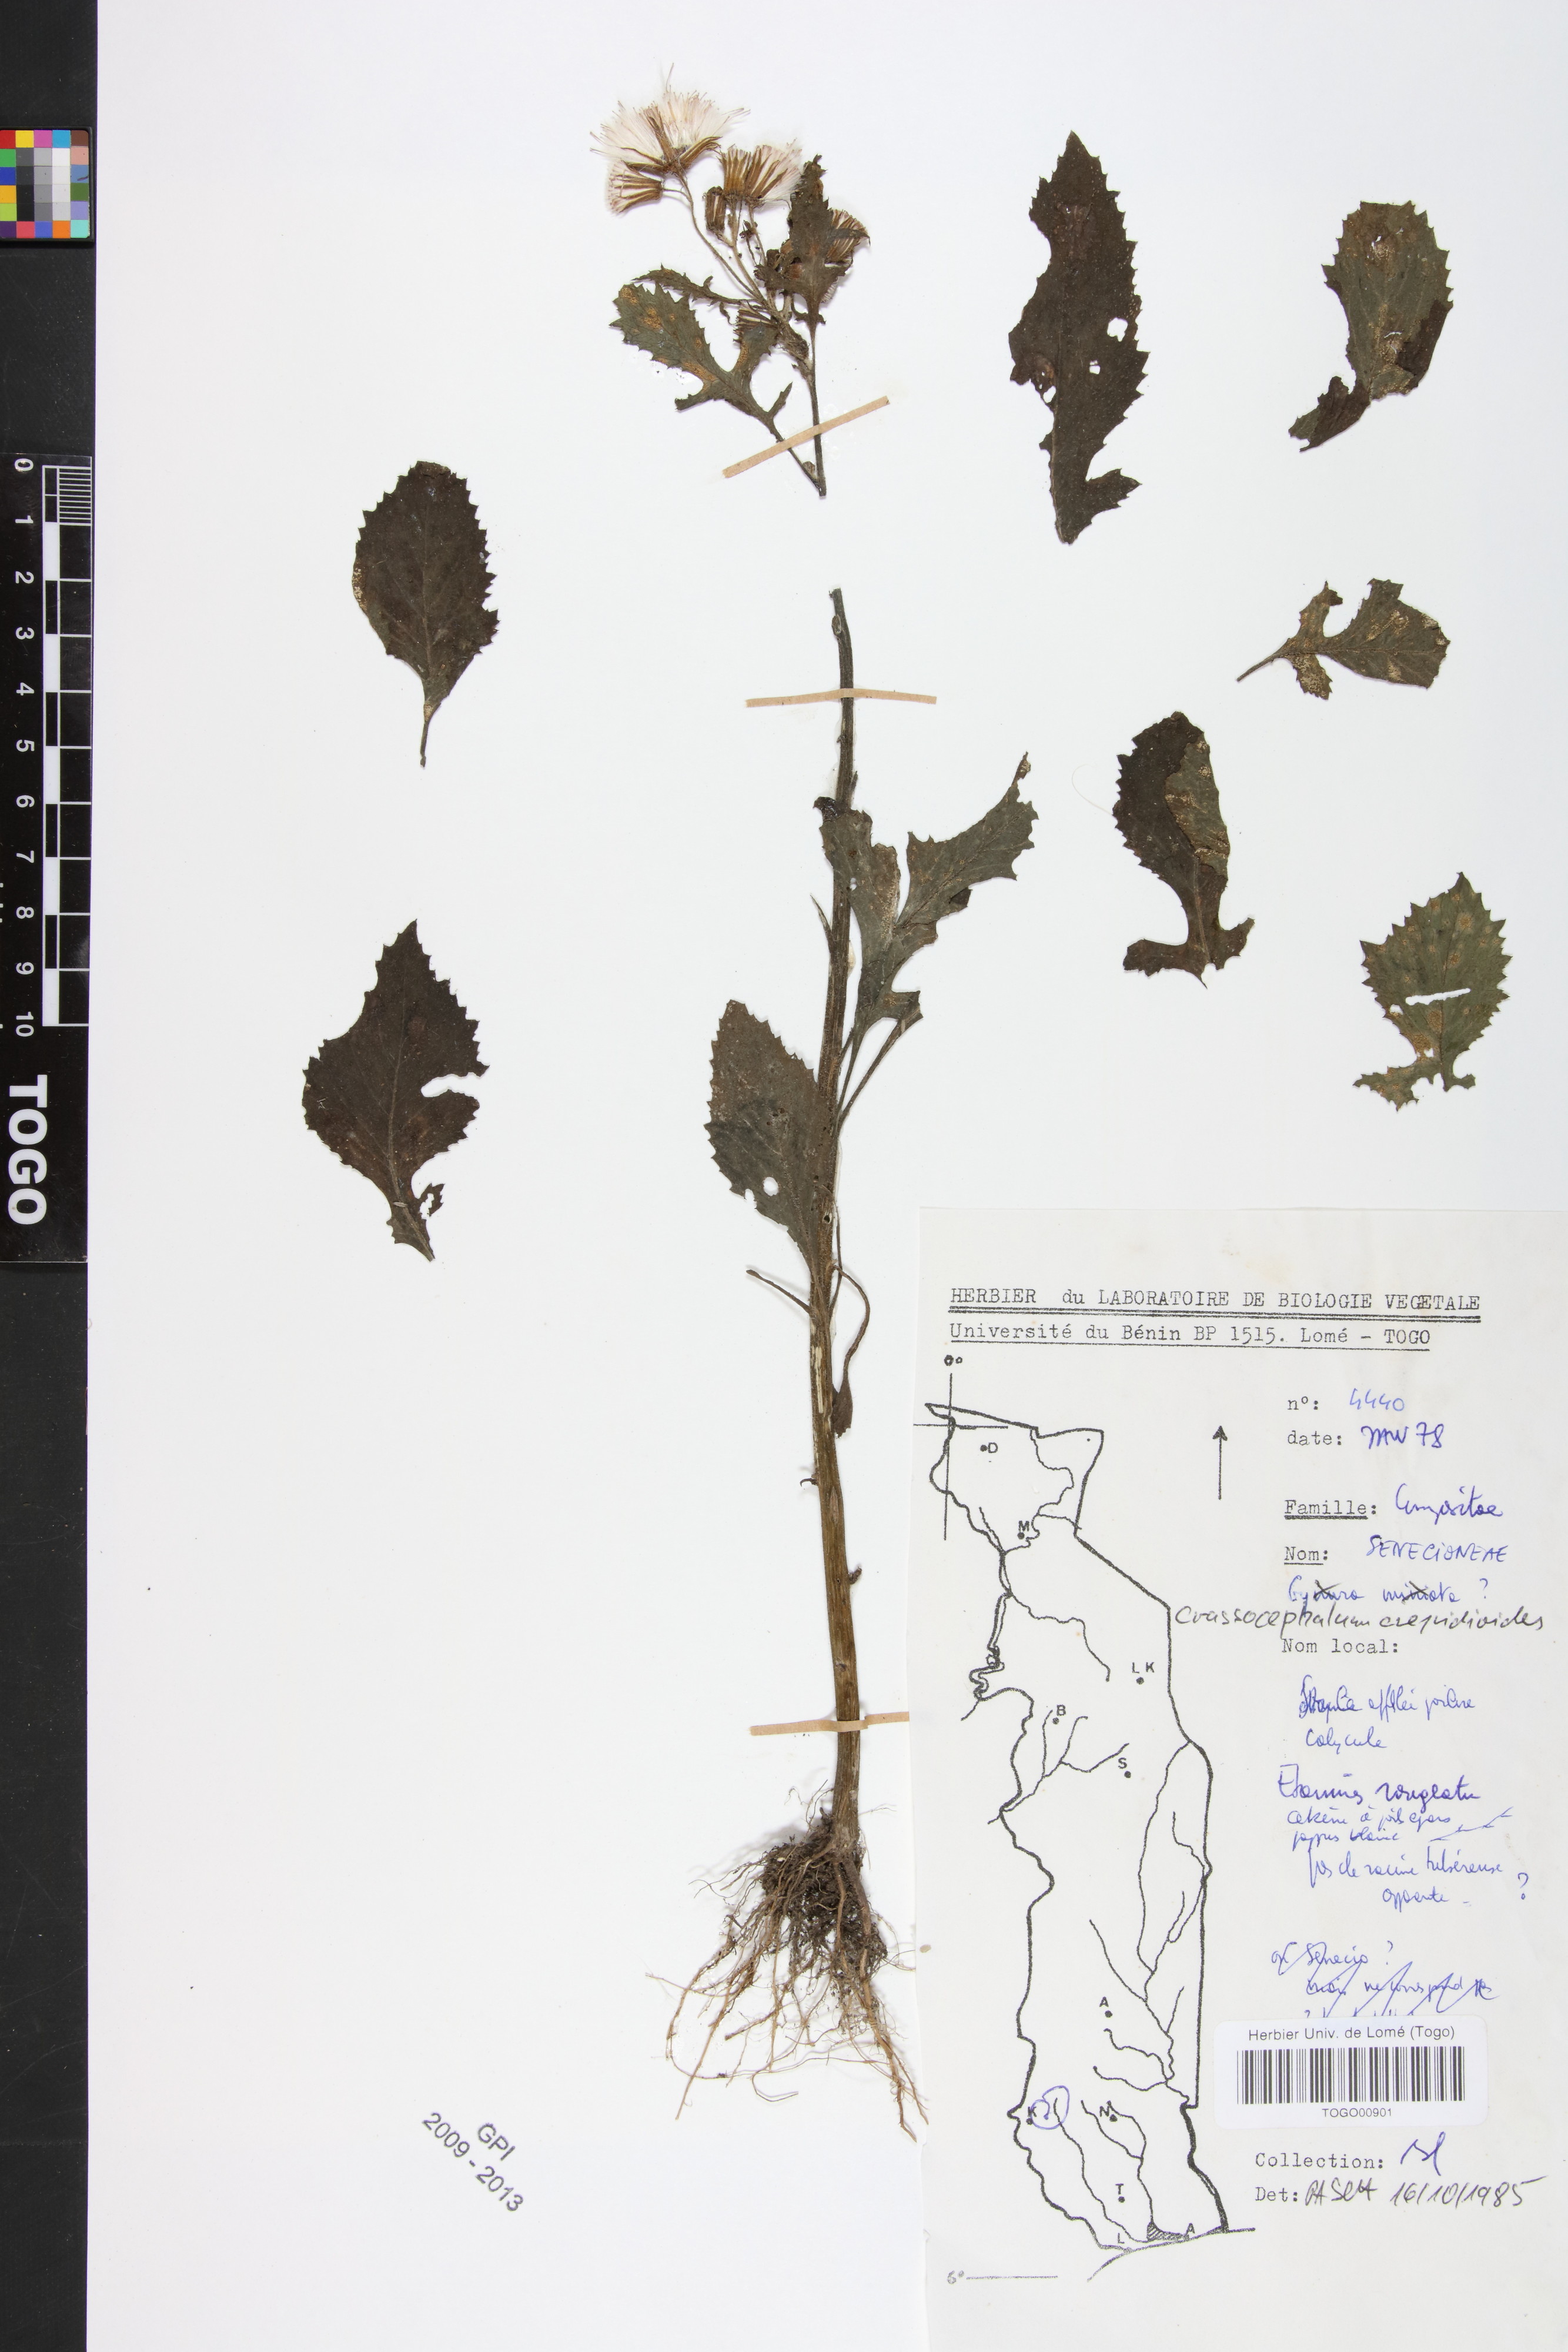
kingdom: Plantae
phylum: Tracheophyta
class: Magnoliopsida
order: Asterales
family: Asteraceae
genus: Crassocephalum
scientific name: Crassocephalum crepidioides
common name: Redflower ragleaf
